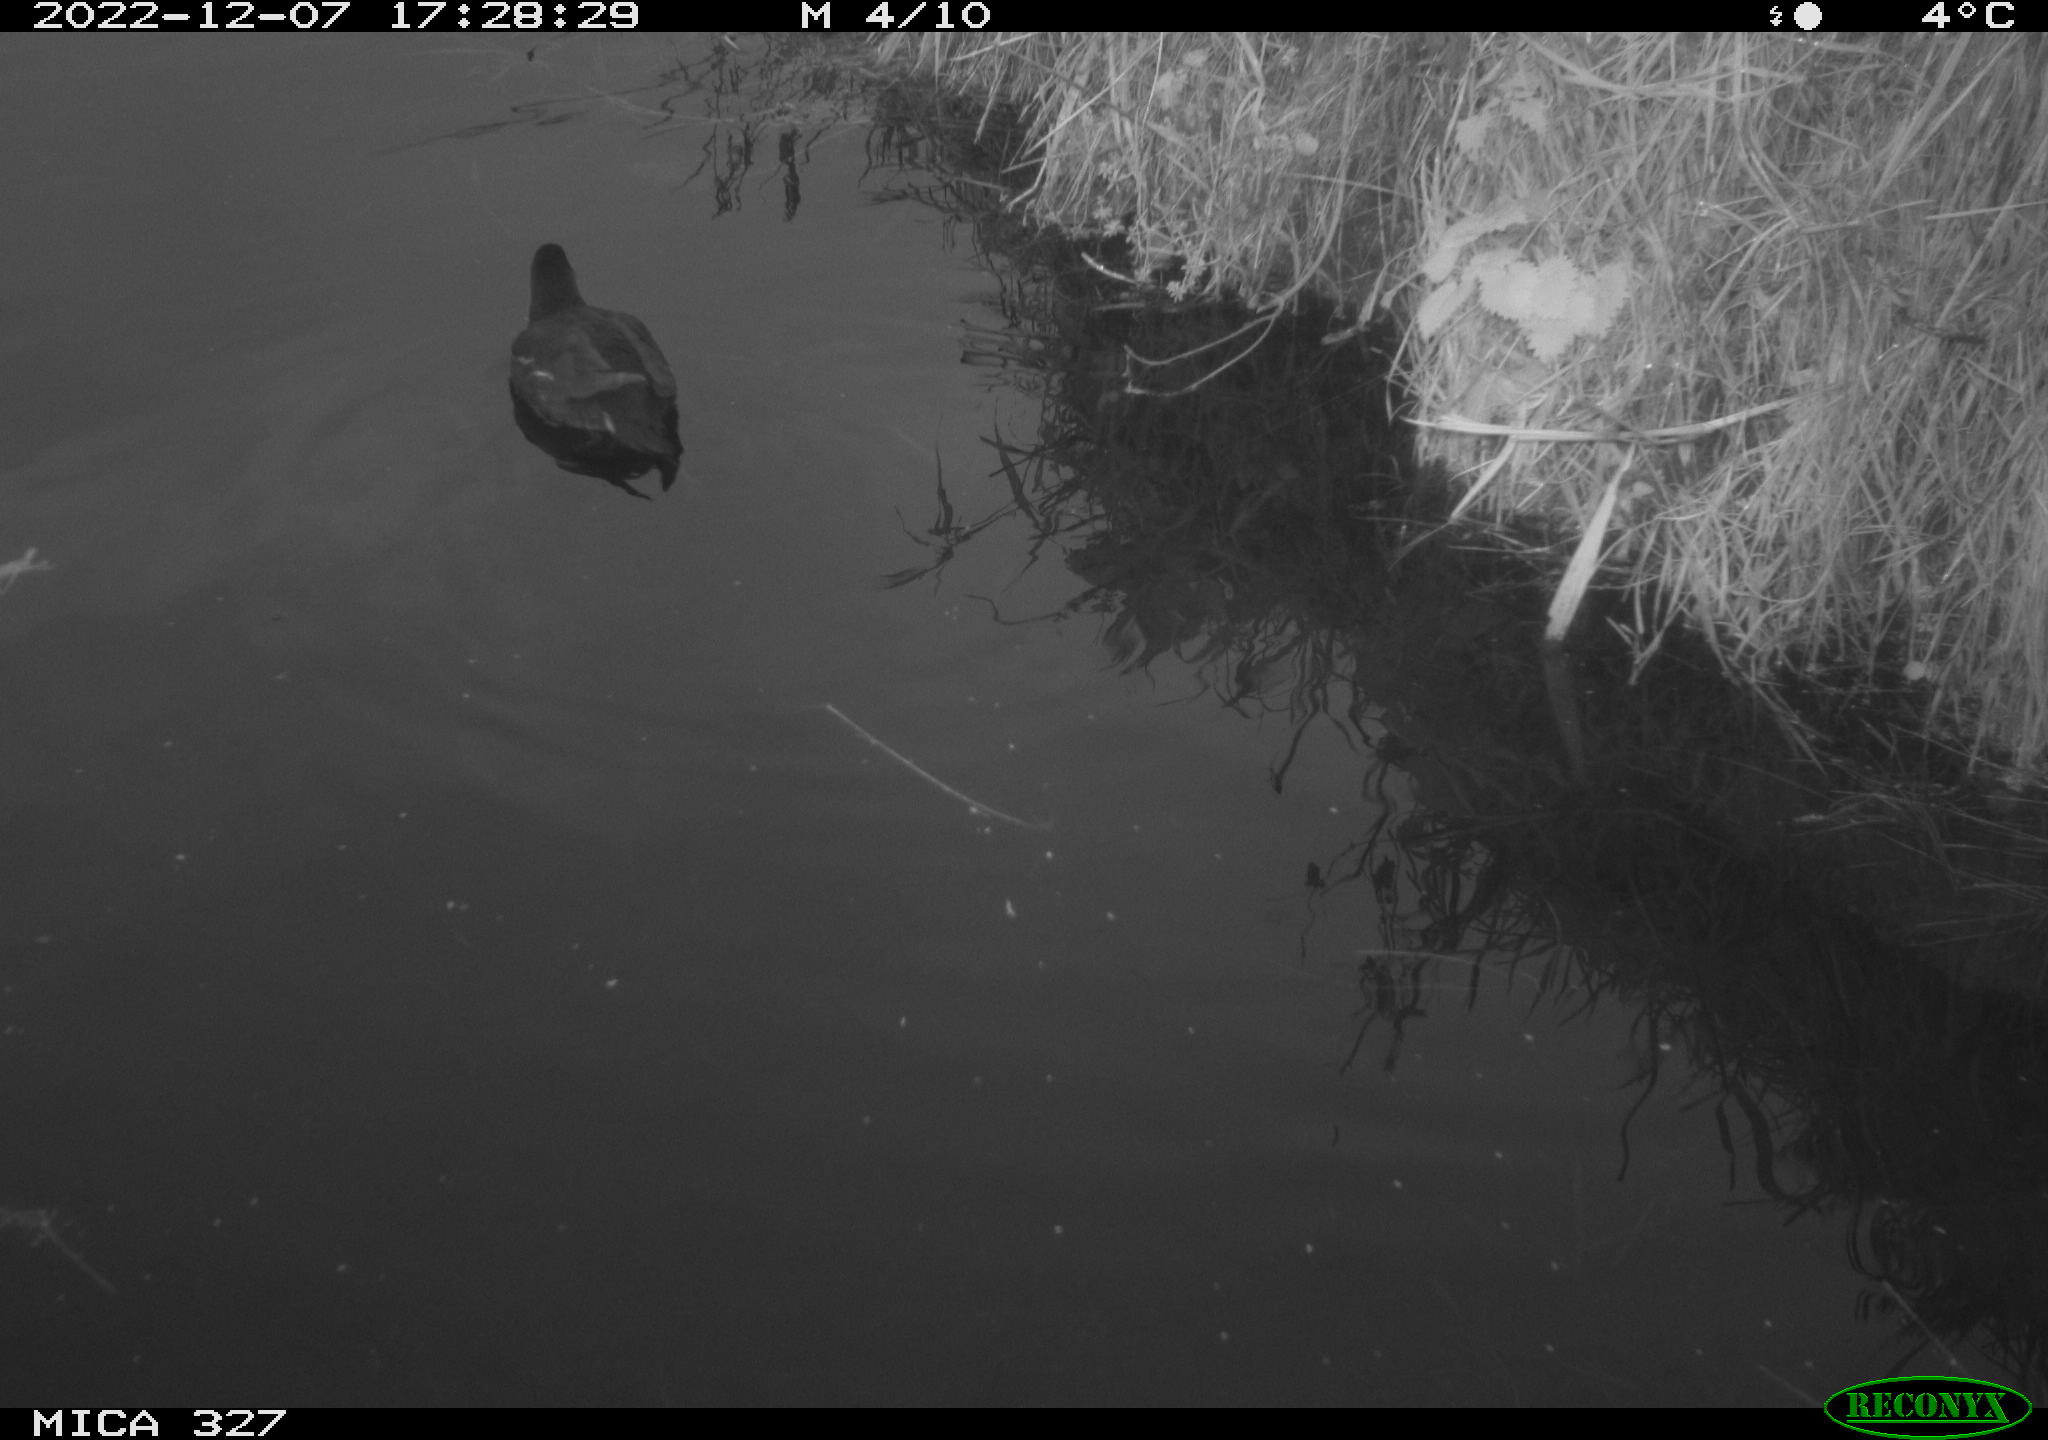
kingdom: Animalia
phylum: Chordata
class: Aves
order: Gruiformes
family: Rallidae
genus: Gallinula
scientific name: Gallinula chloropus
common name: Common moorhen
